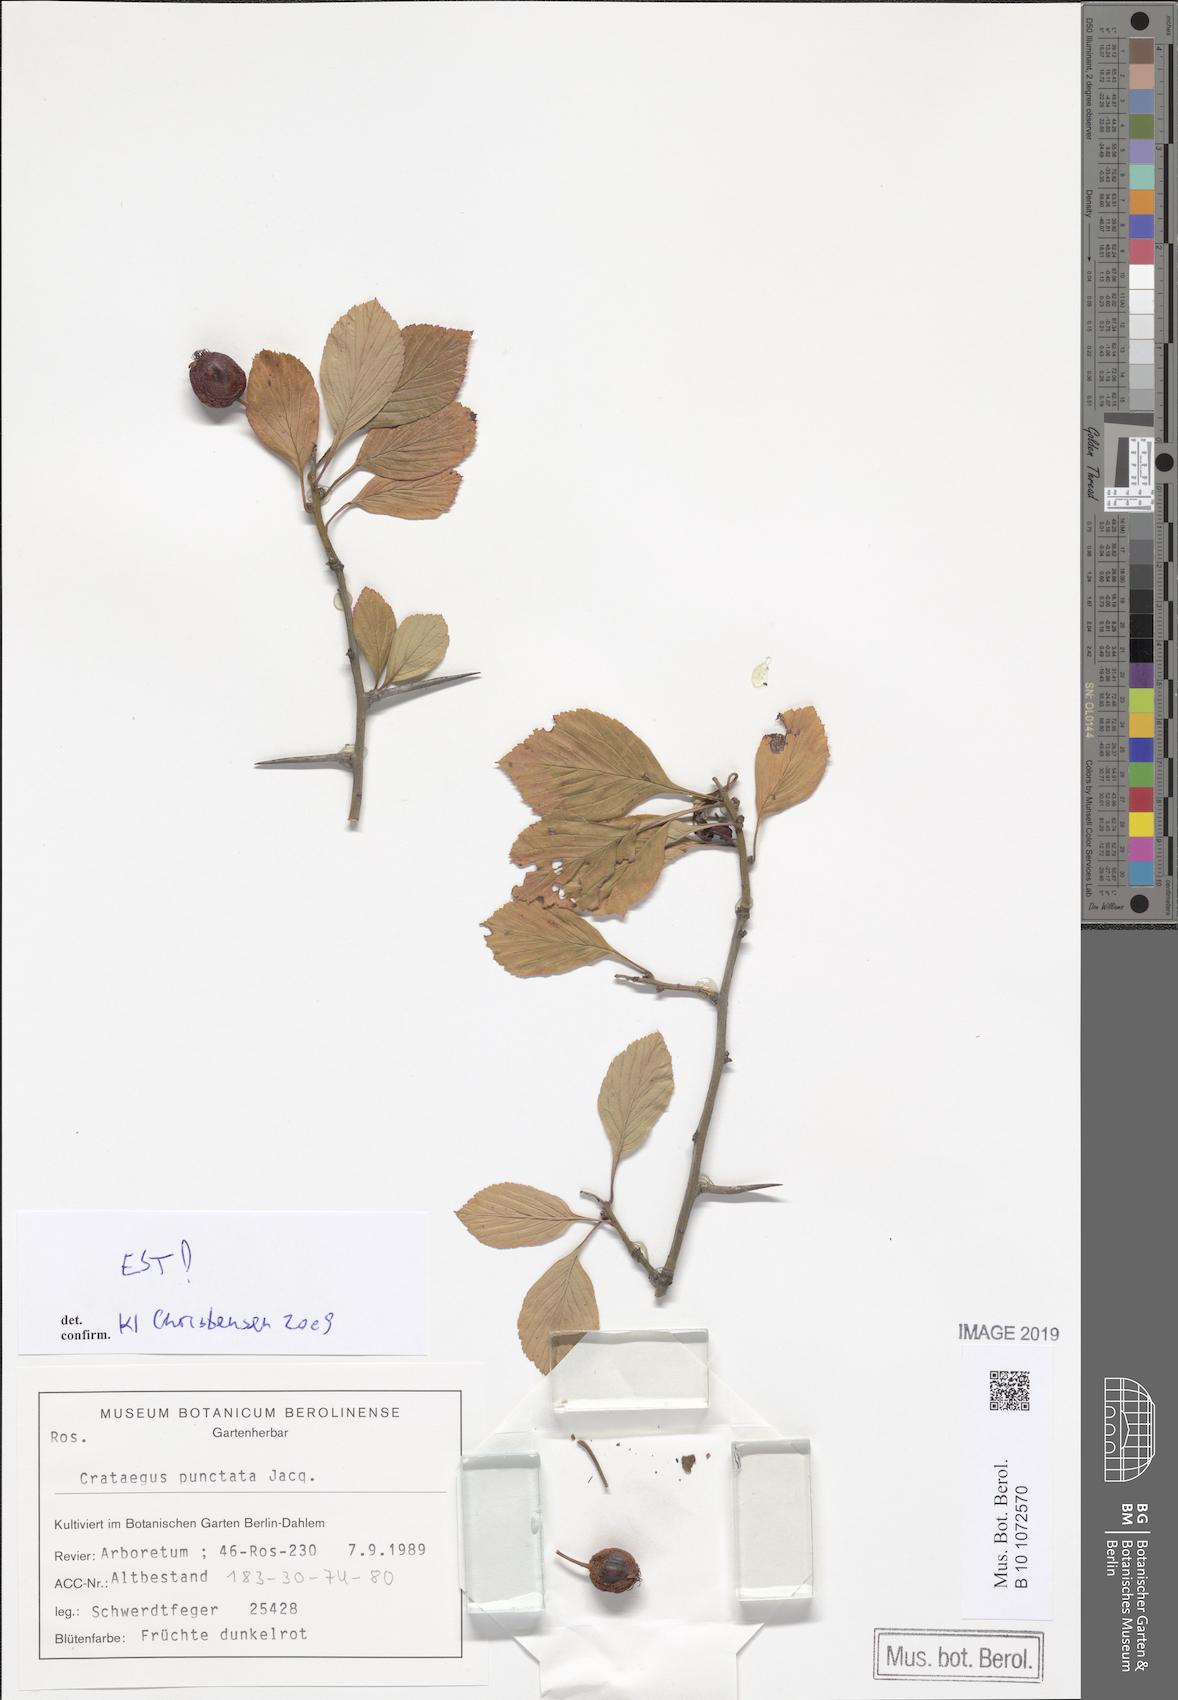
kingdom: Plantae
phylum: Tracheophyta
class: Magnoliopsida
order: Rosales
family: Rosaceae
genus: Crataegus
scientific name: Crataegus punctata
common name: Dotted hawthorn
